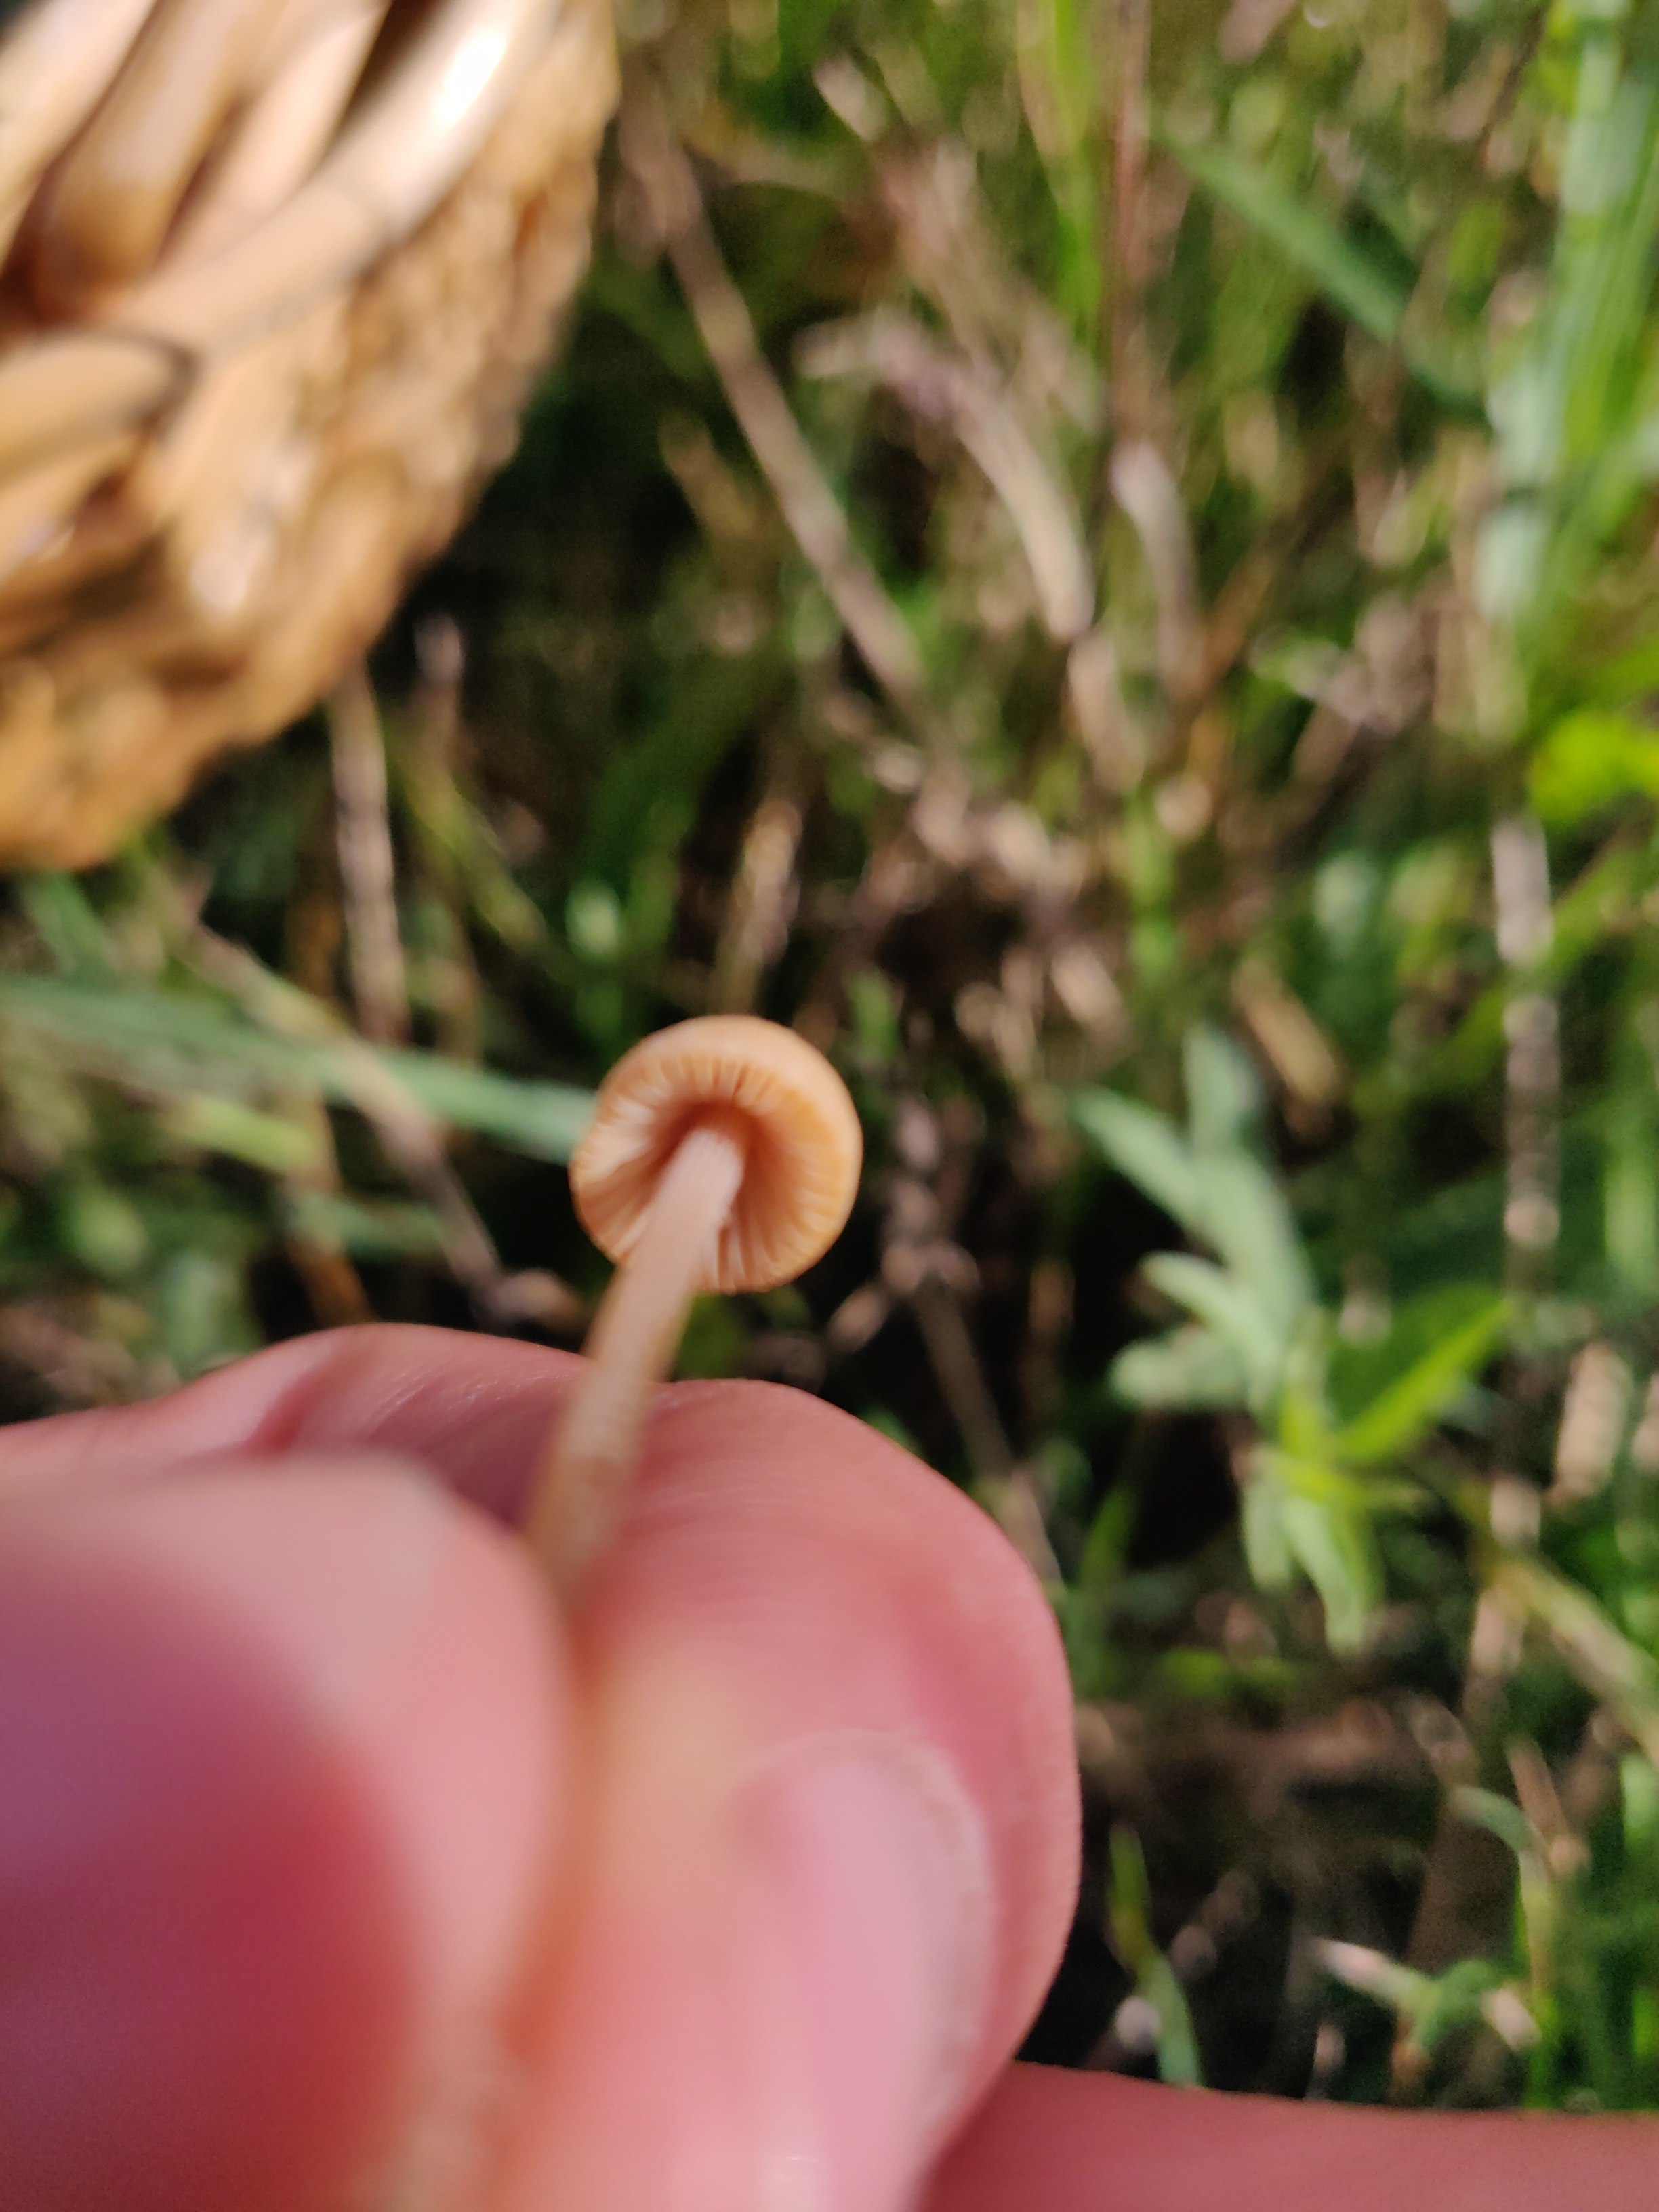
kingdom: Fungi
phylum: Basidiomycota
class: Agaricomycetes
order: Agaricales
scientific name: Agaricales
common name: champignonordenen
